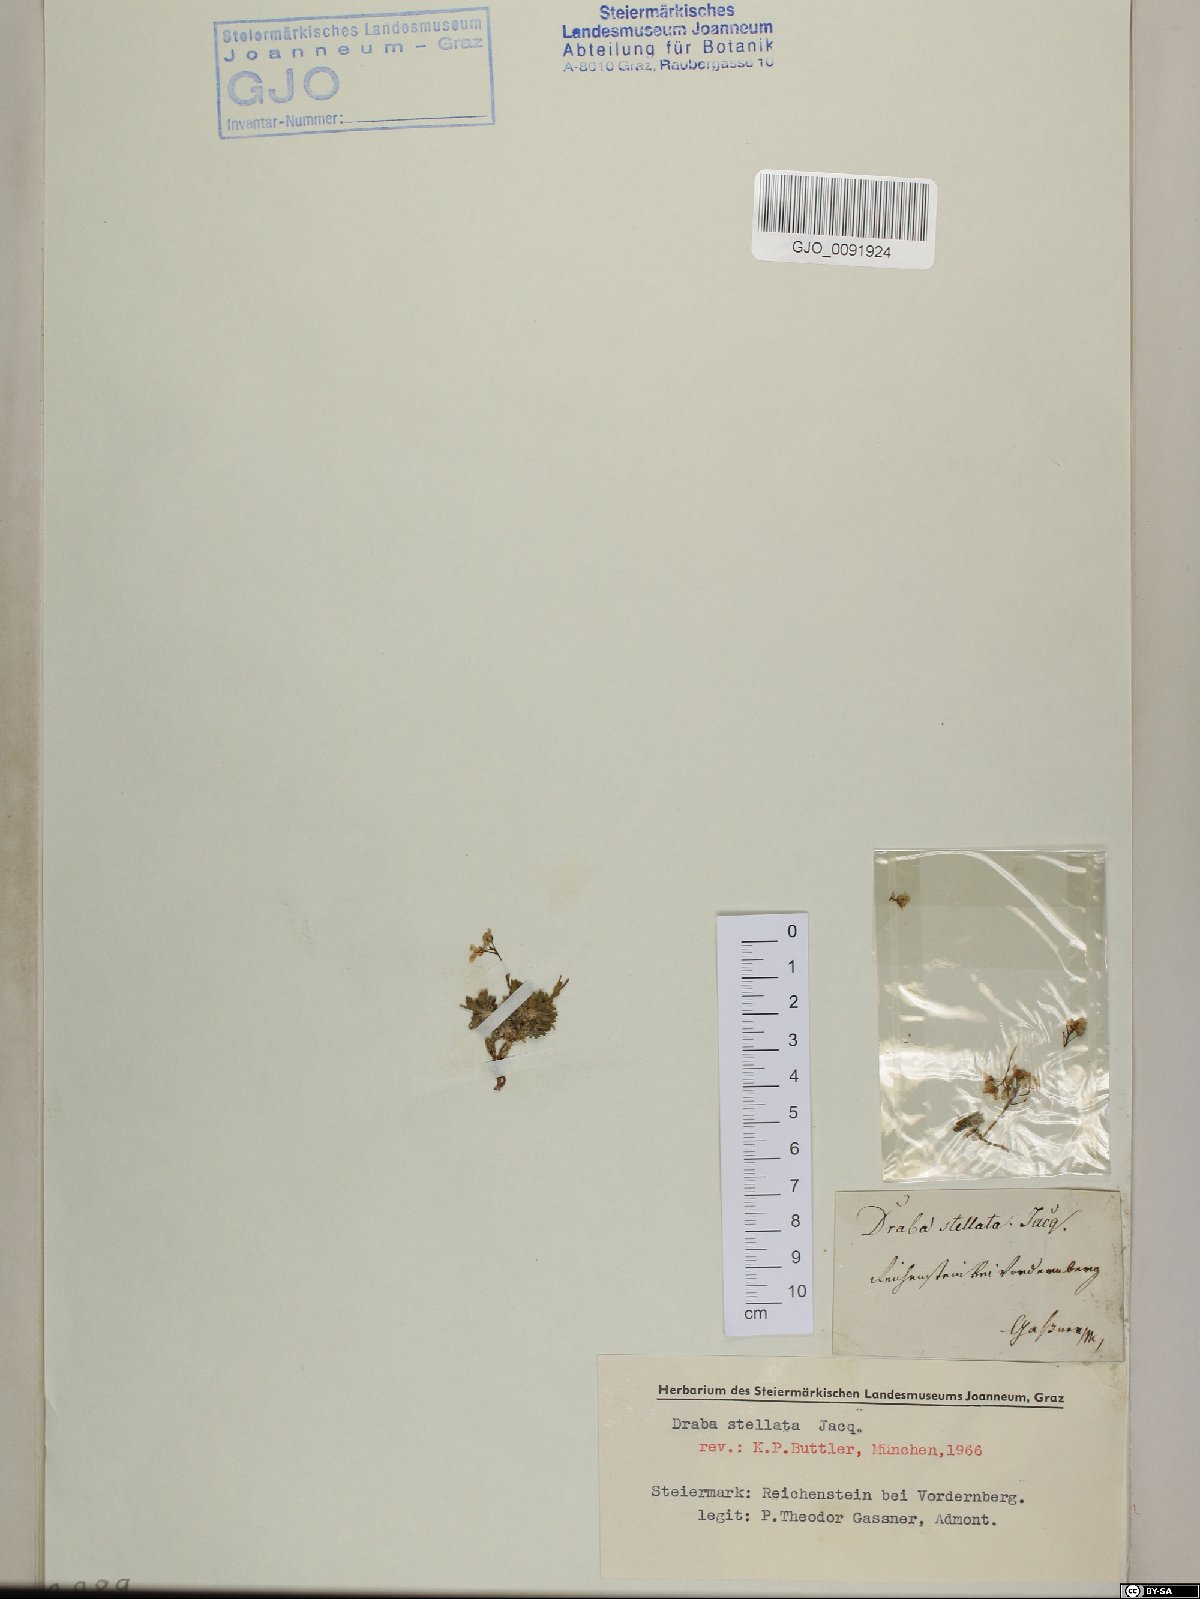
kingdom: Plantae
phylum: Tracheophyta
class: Magnoliopsida
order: Brassicales
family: Brassicaceae
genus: Draba
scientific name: Draba stellata
